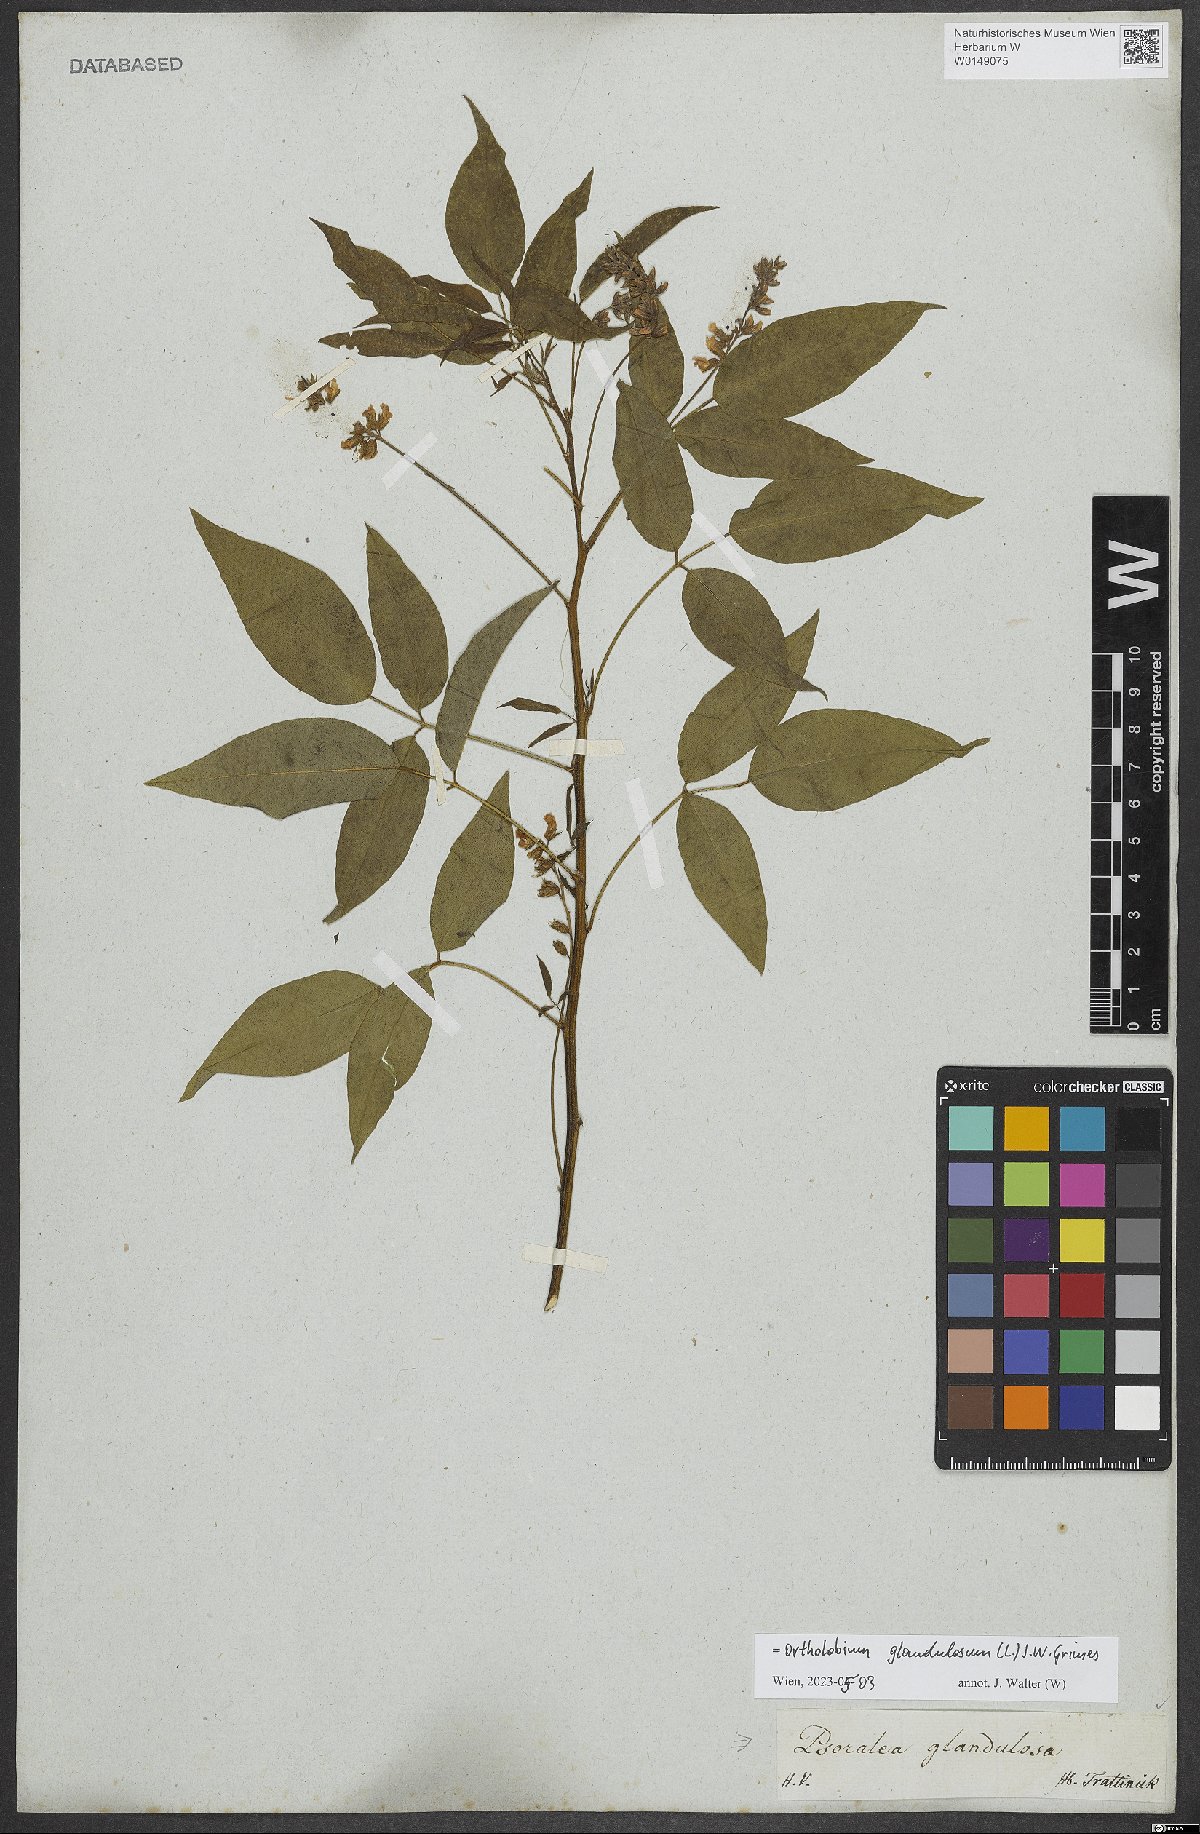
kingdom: Plantae
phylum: Tracheophyta
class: Magnoliopsida
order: Fabales
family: Fabaceae
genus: Psoralea
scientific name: Psoralea Otholobium glandulosum
